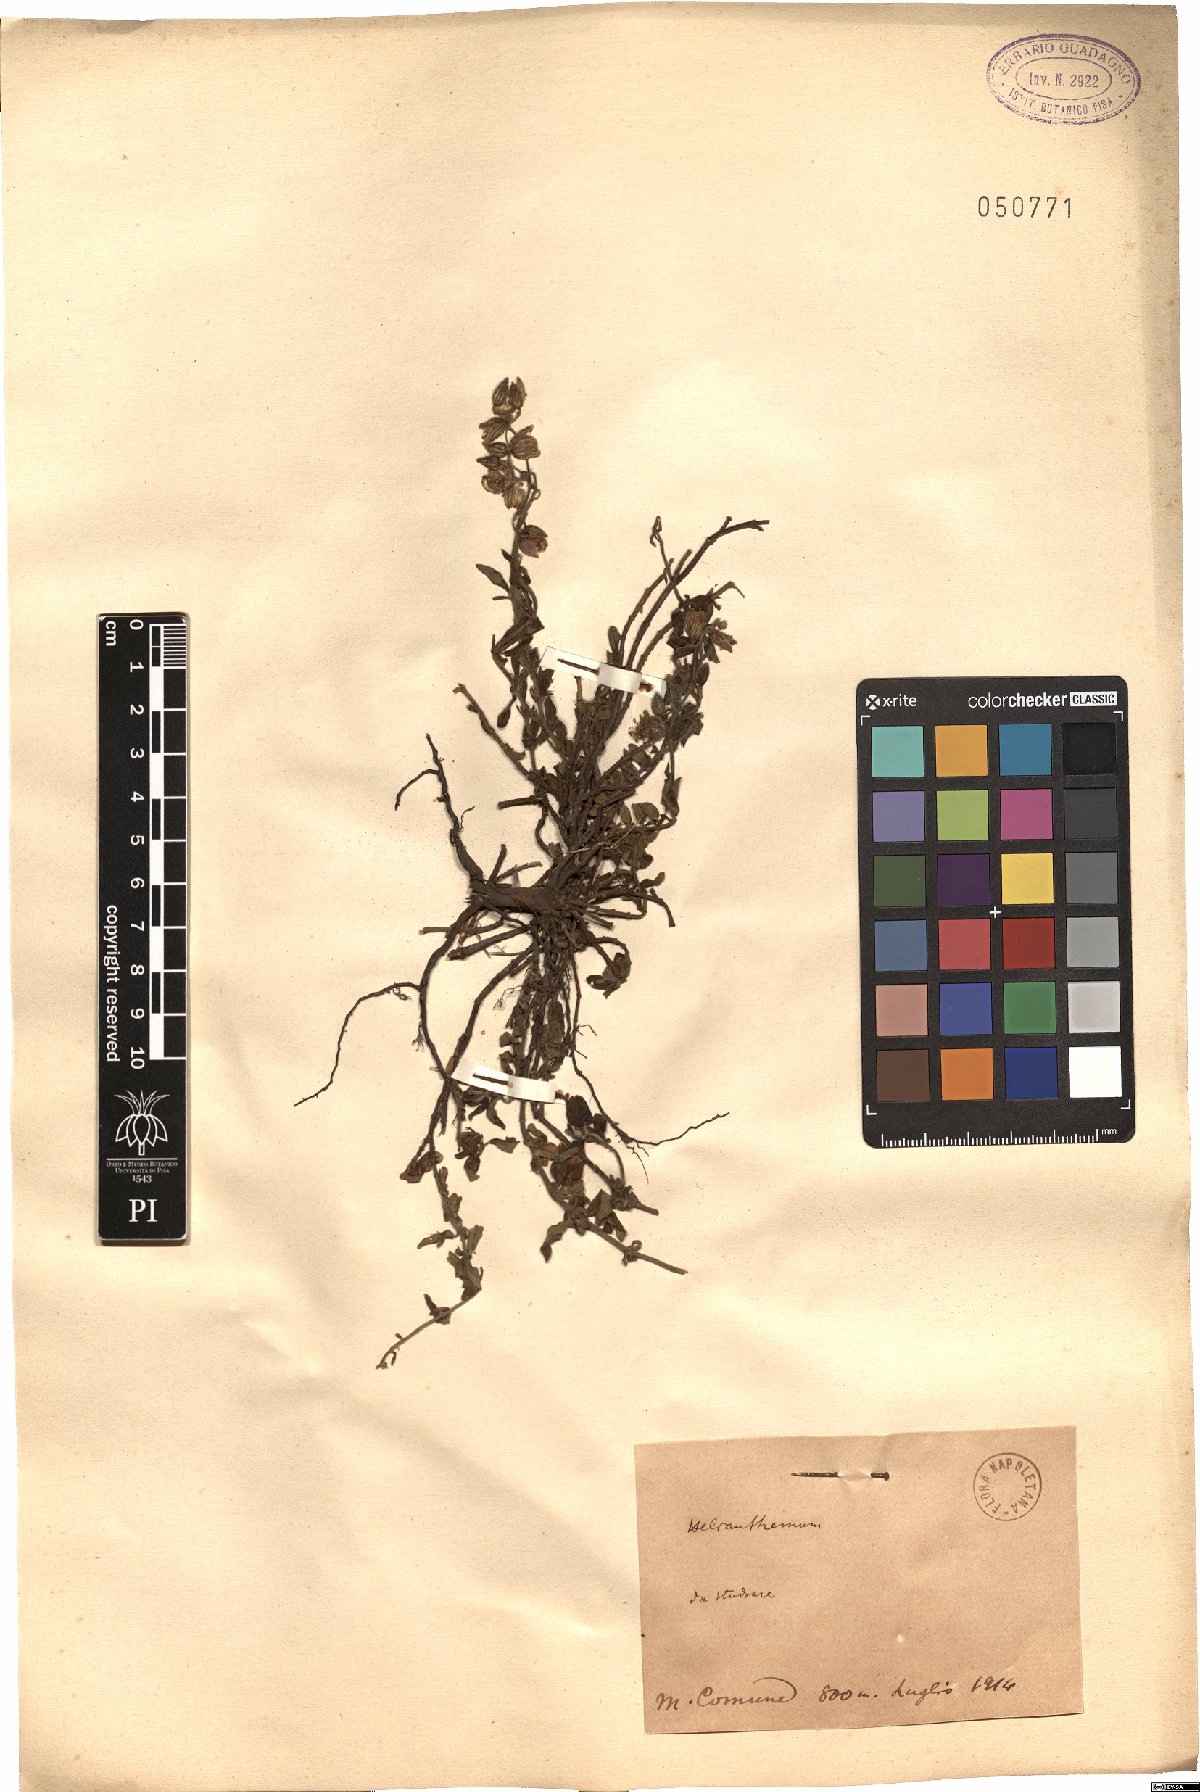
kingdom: Plantae
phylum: Tracheophyta
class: Magnoliopsida
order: Malvales
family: Cistaceae
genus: Helianthemum
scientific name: Helianthemum
